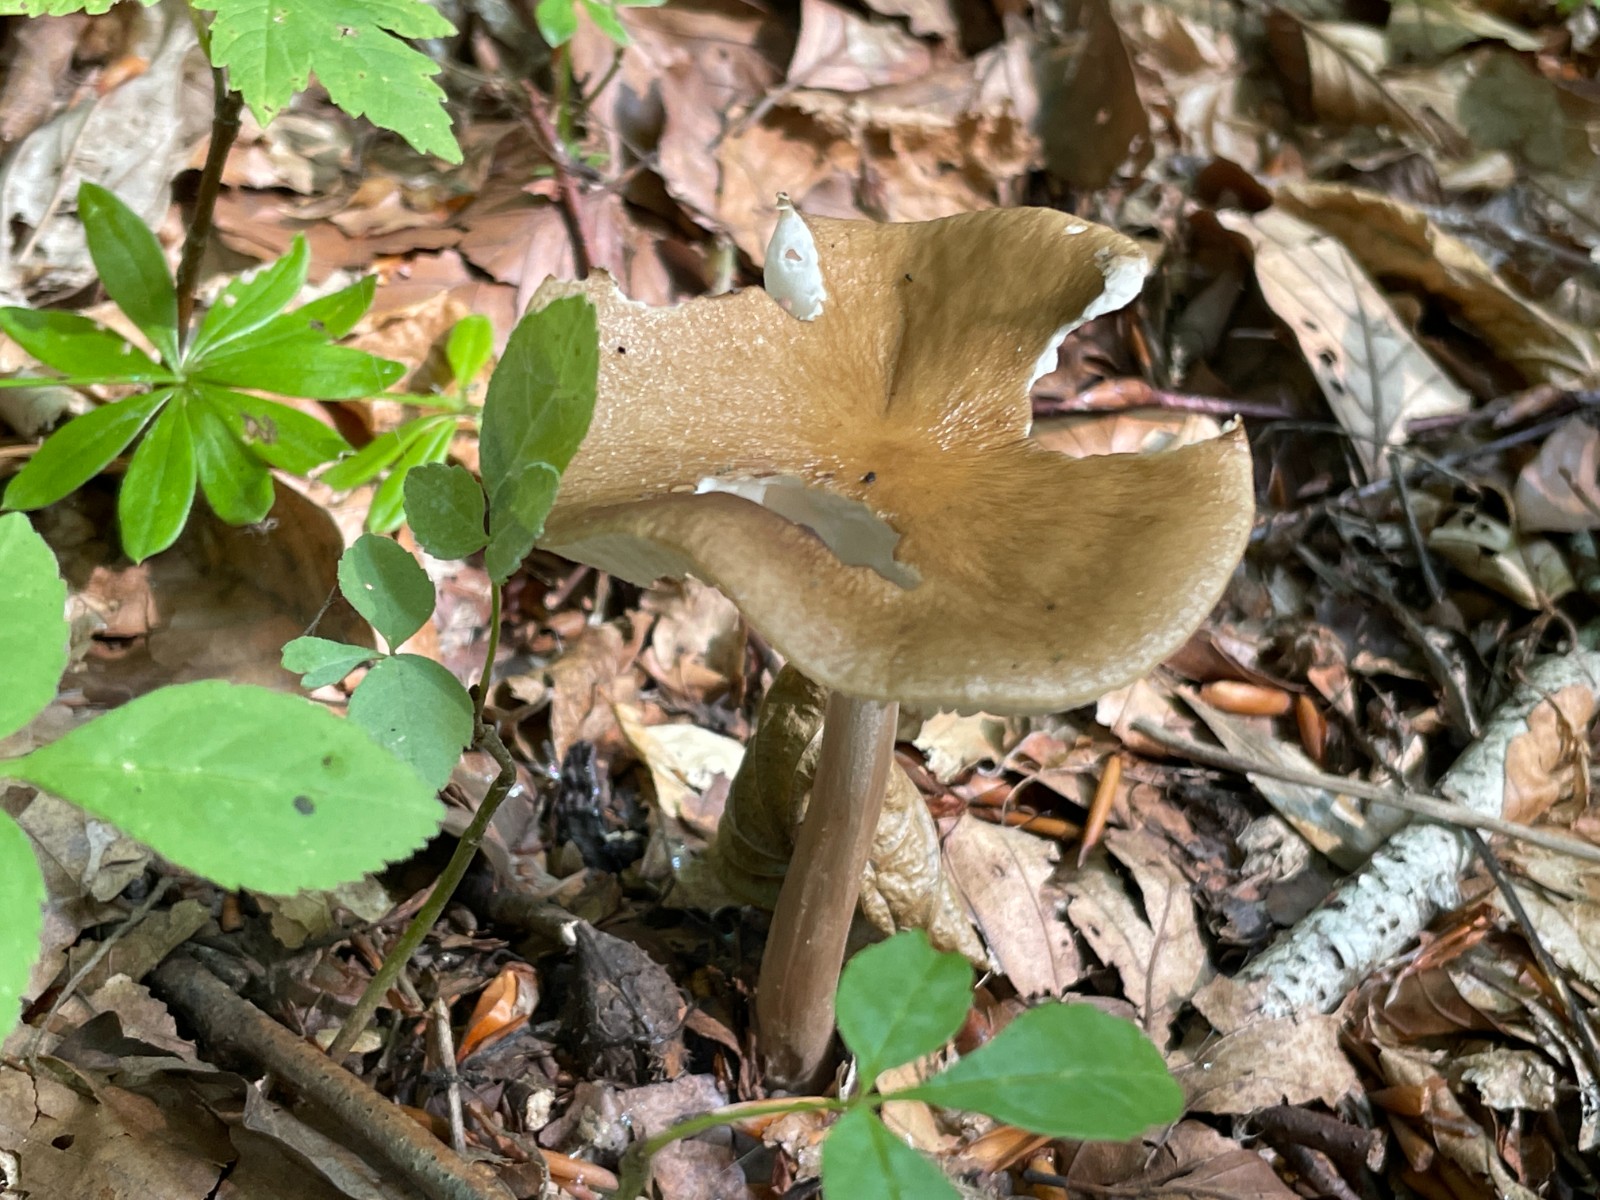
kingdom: Fungi
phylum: Basidiomycota
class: Agaricomycetes
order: Agaricales
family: Physalacriaceae
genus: Hymenopellis
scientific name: Hymenopellis radicata
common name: almindelig pælerodshat
